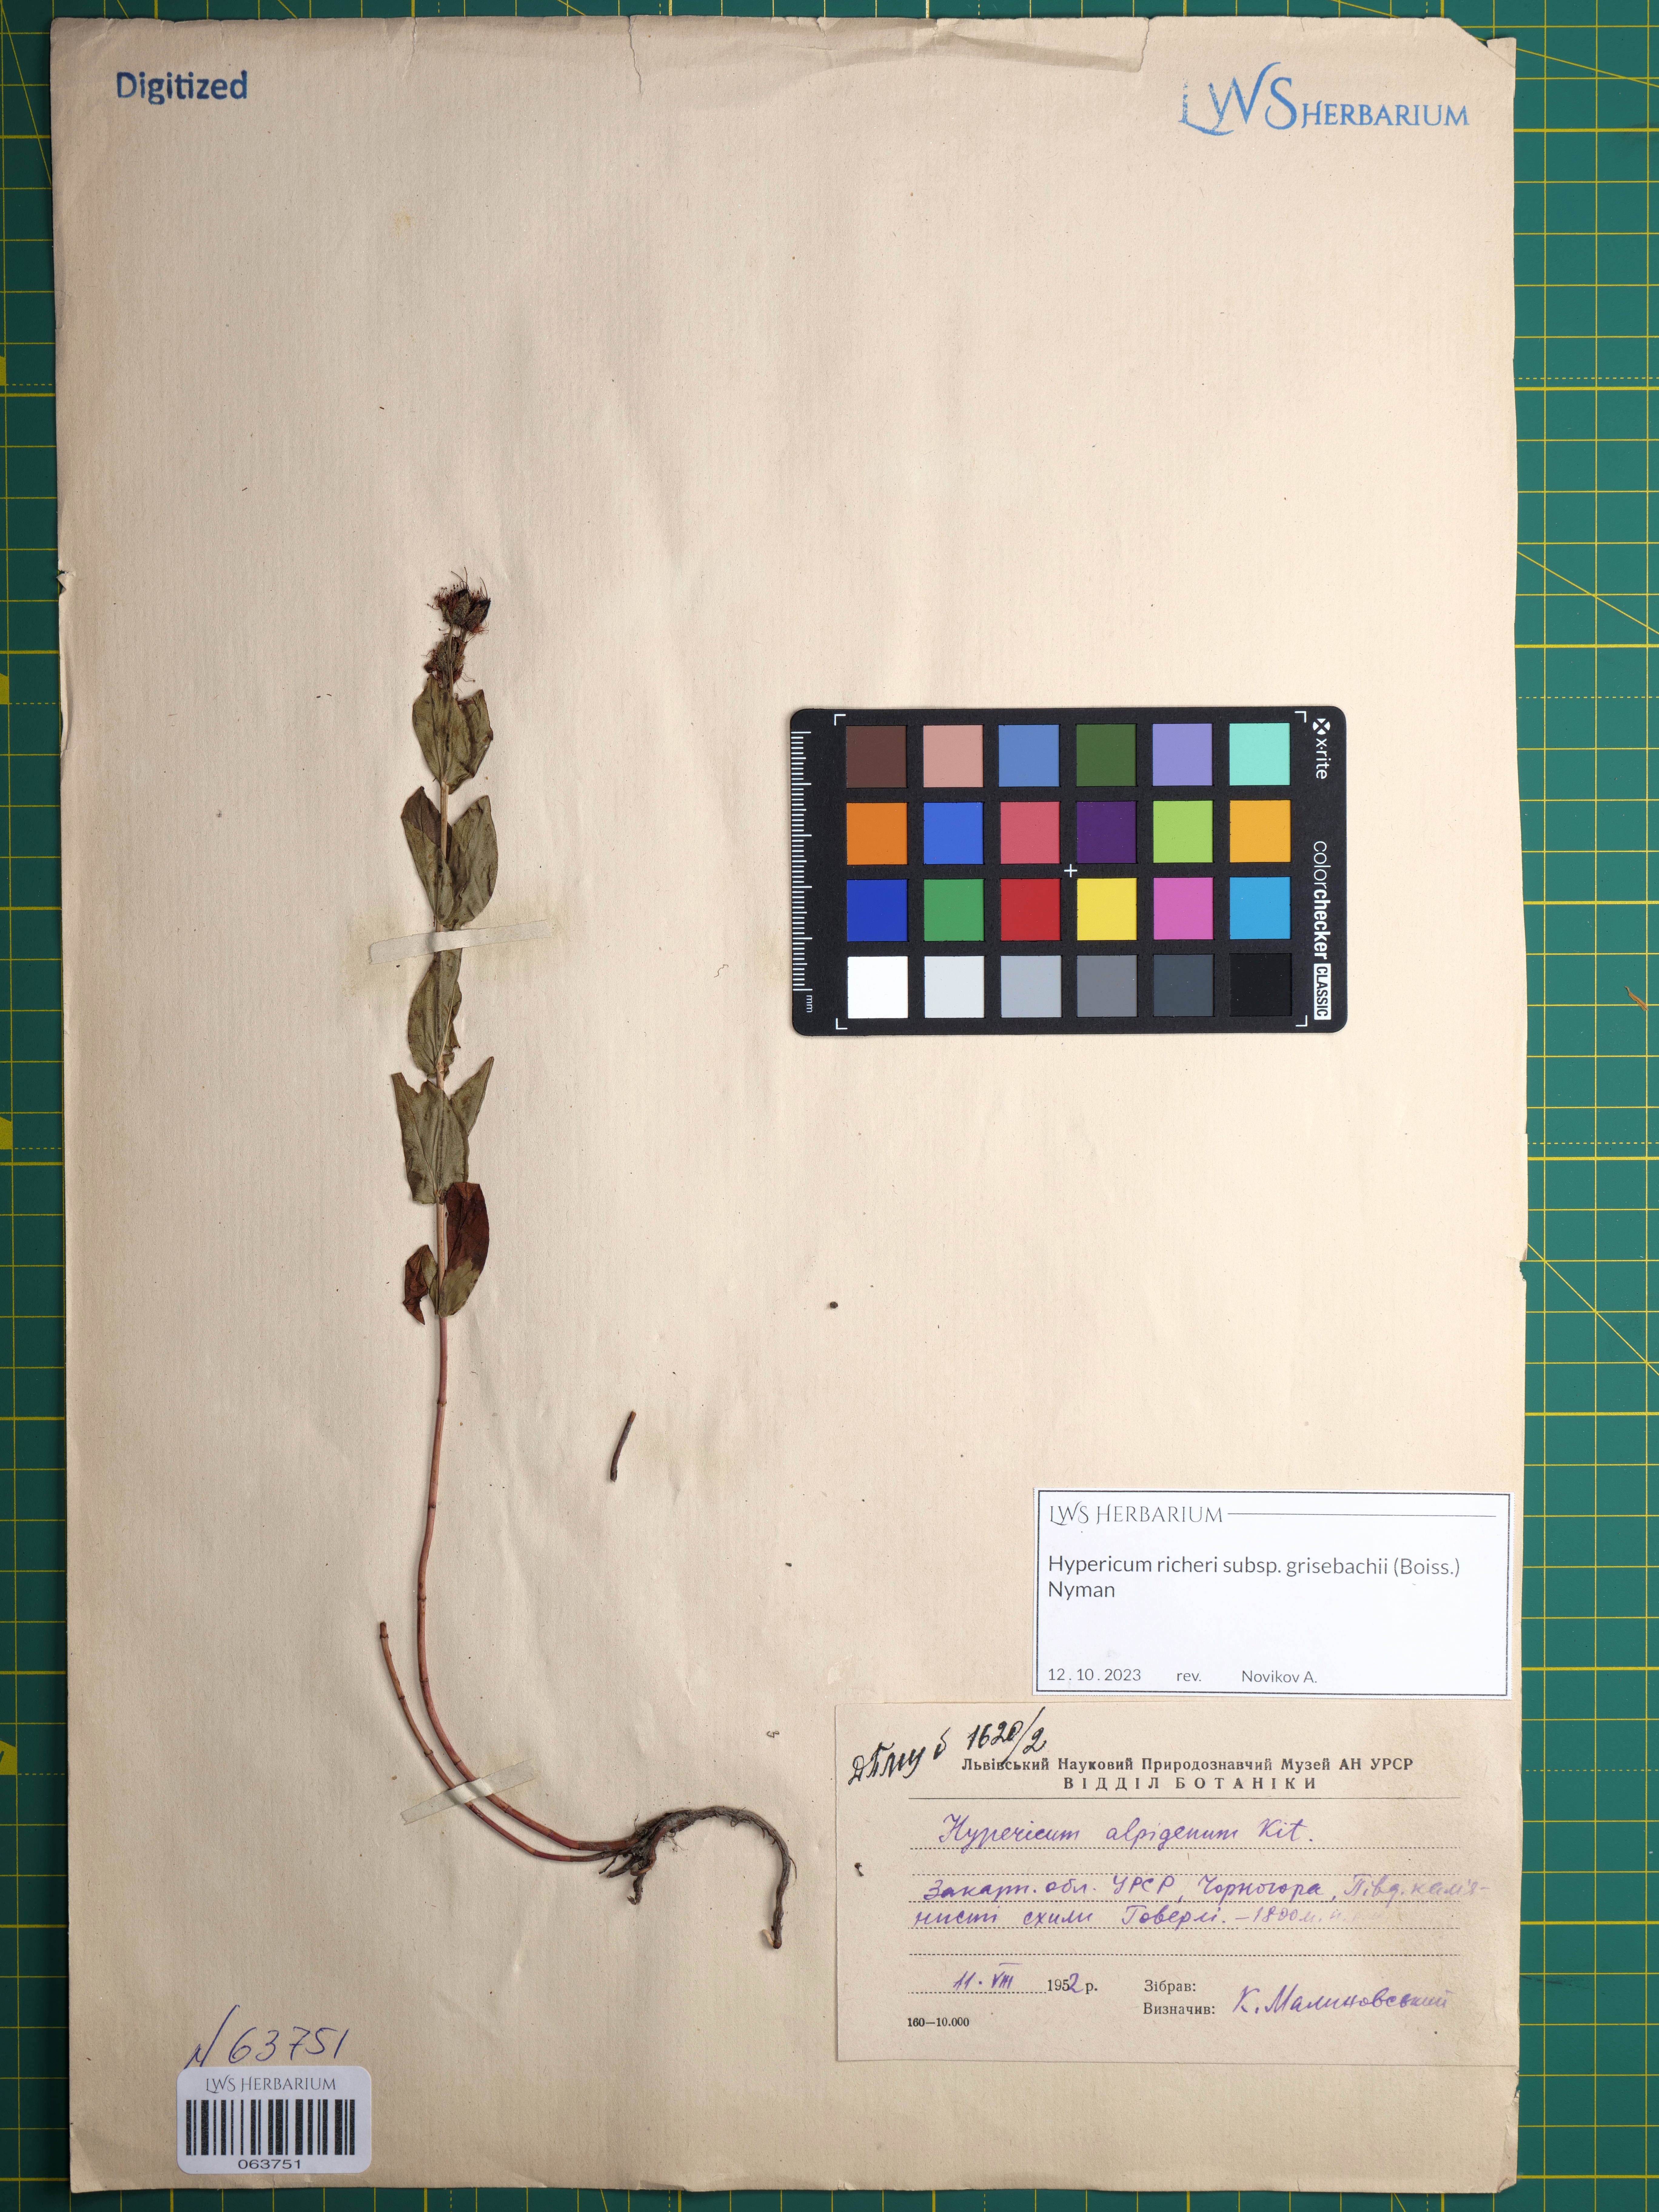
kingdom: Plantae
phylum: Tracheophyta
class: Magnoliopsida
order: Malpighiales
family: Hypericaceae
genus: Hypericum
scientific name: Hypericum richeri
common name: Alpine st john's-wort
